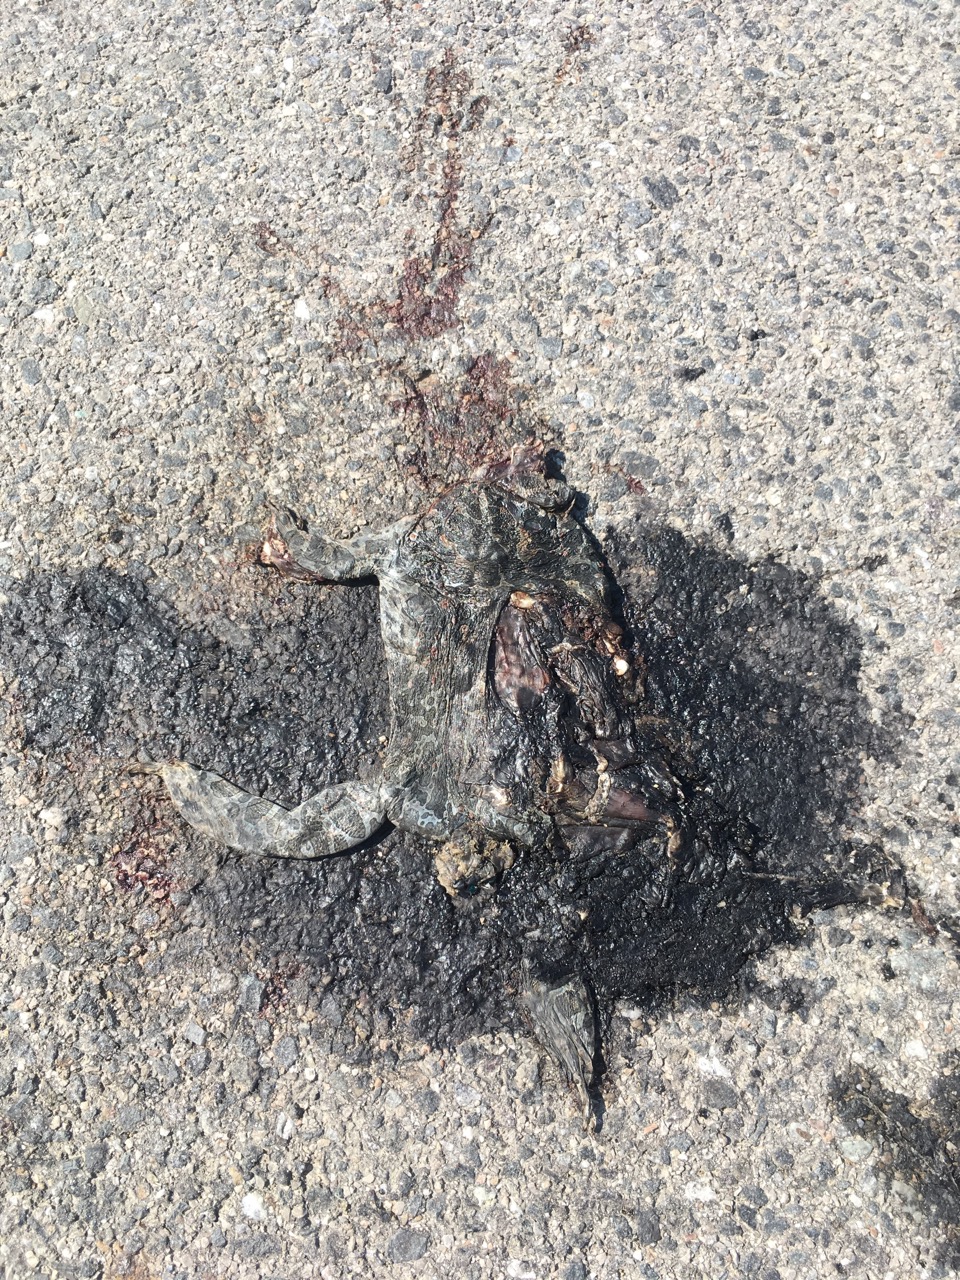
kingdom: Animalia
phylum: Chordata
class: Amphibia
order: Anura
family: Bufonidae
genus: Bufotes
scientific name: Bufotes viridis
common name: European green toad
